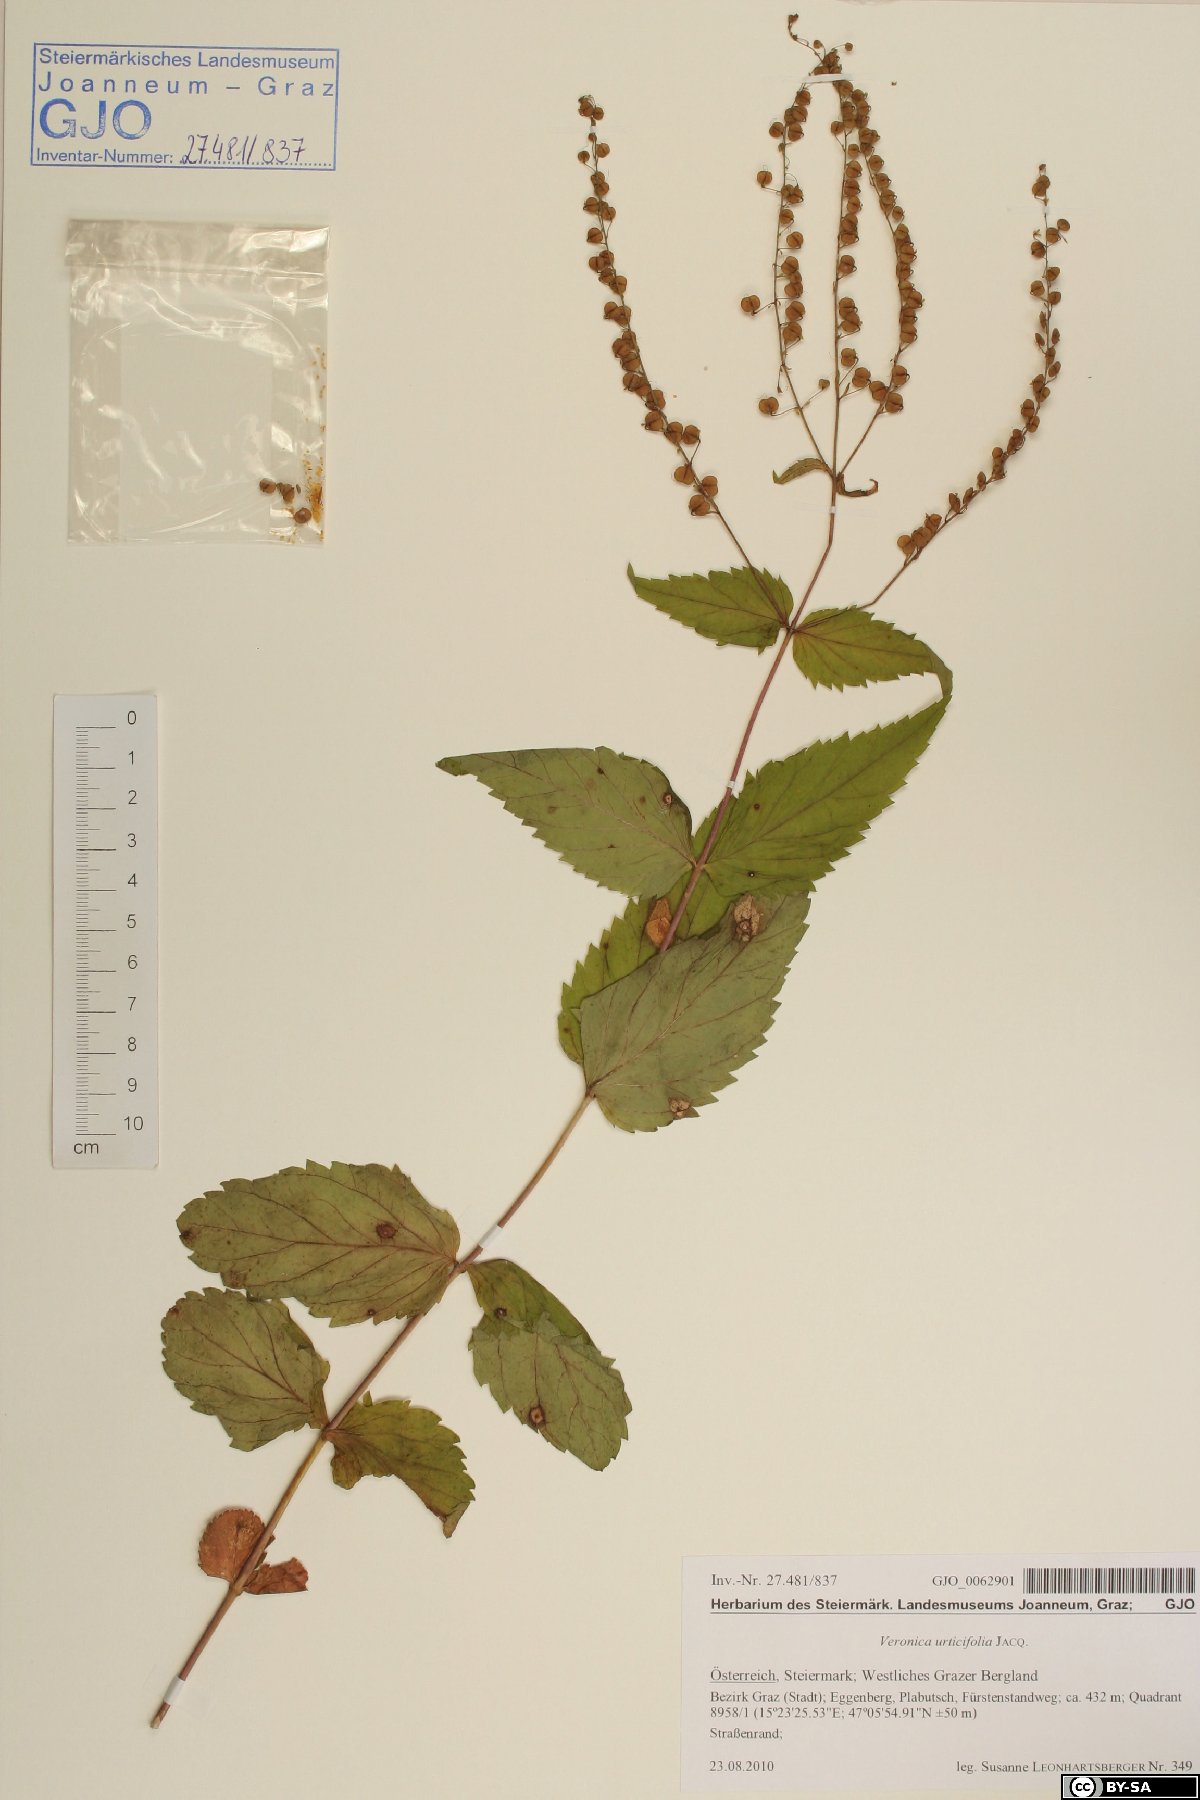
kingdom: Plantae
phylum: Tracheophyta
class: Magnoliopsida
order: Lamiales
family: Plantaginaceae
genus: Veronica
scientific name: Veronica urticifolia
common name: Nettle-leaf speedwell
